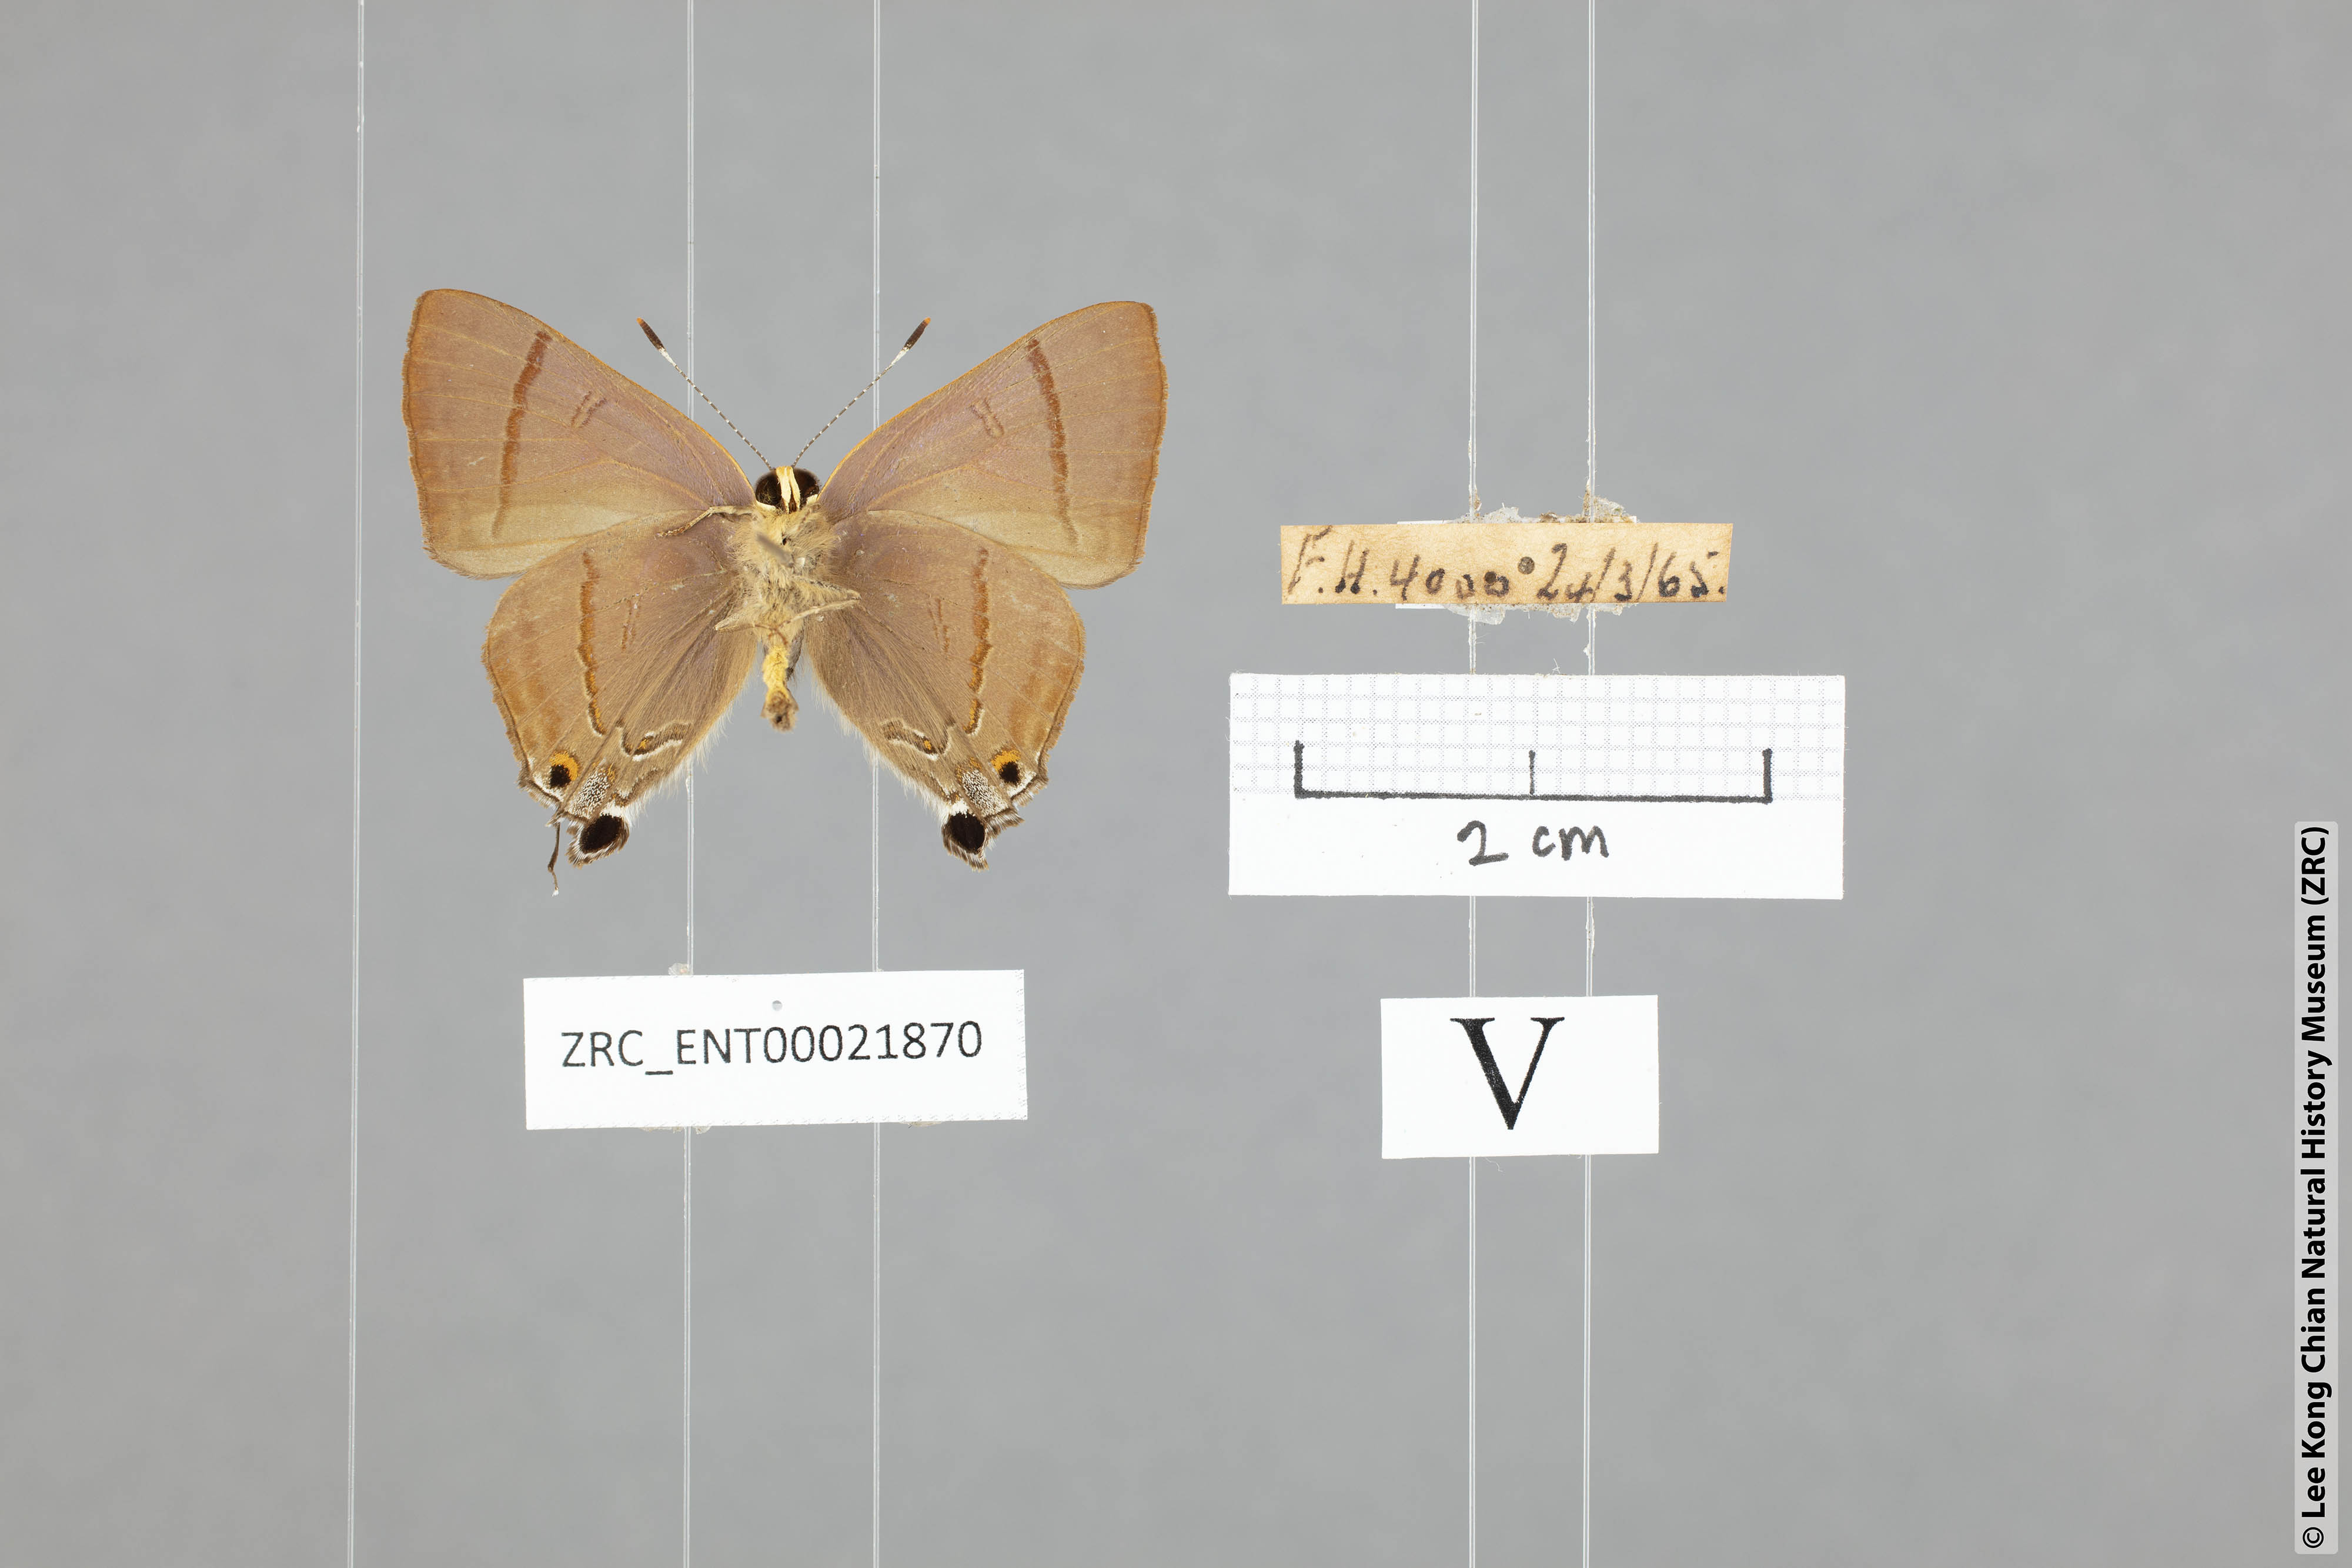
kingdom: Animalia
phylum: Arthropoda
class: Insecta
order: Lepidoptera
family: Lycaenidae
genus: Rapala
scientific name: Rapala nissa
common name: Common flash
